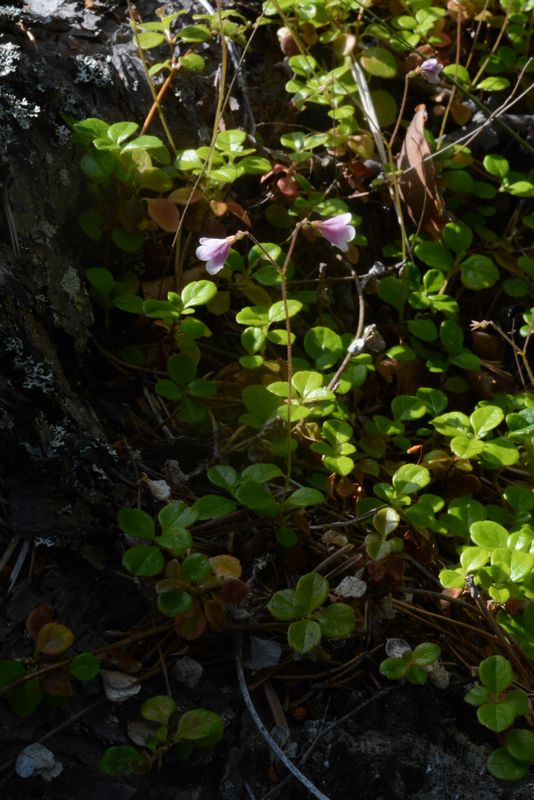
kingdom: Plantae
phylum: Tracheophyta
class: Magnoliopsida
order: Dipsacales
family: Caprifoliaceae
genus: Linnaea
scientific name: Linnaea borealis
